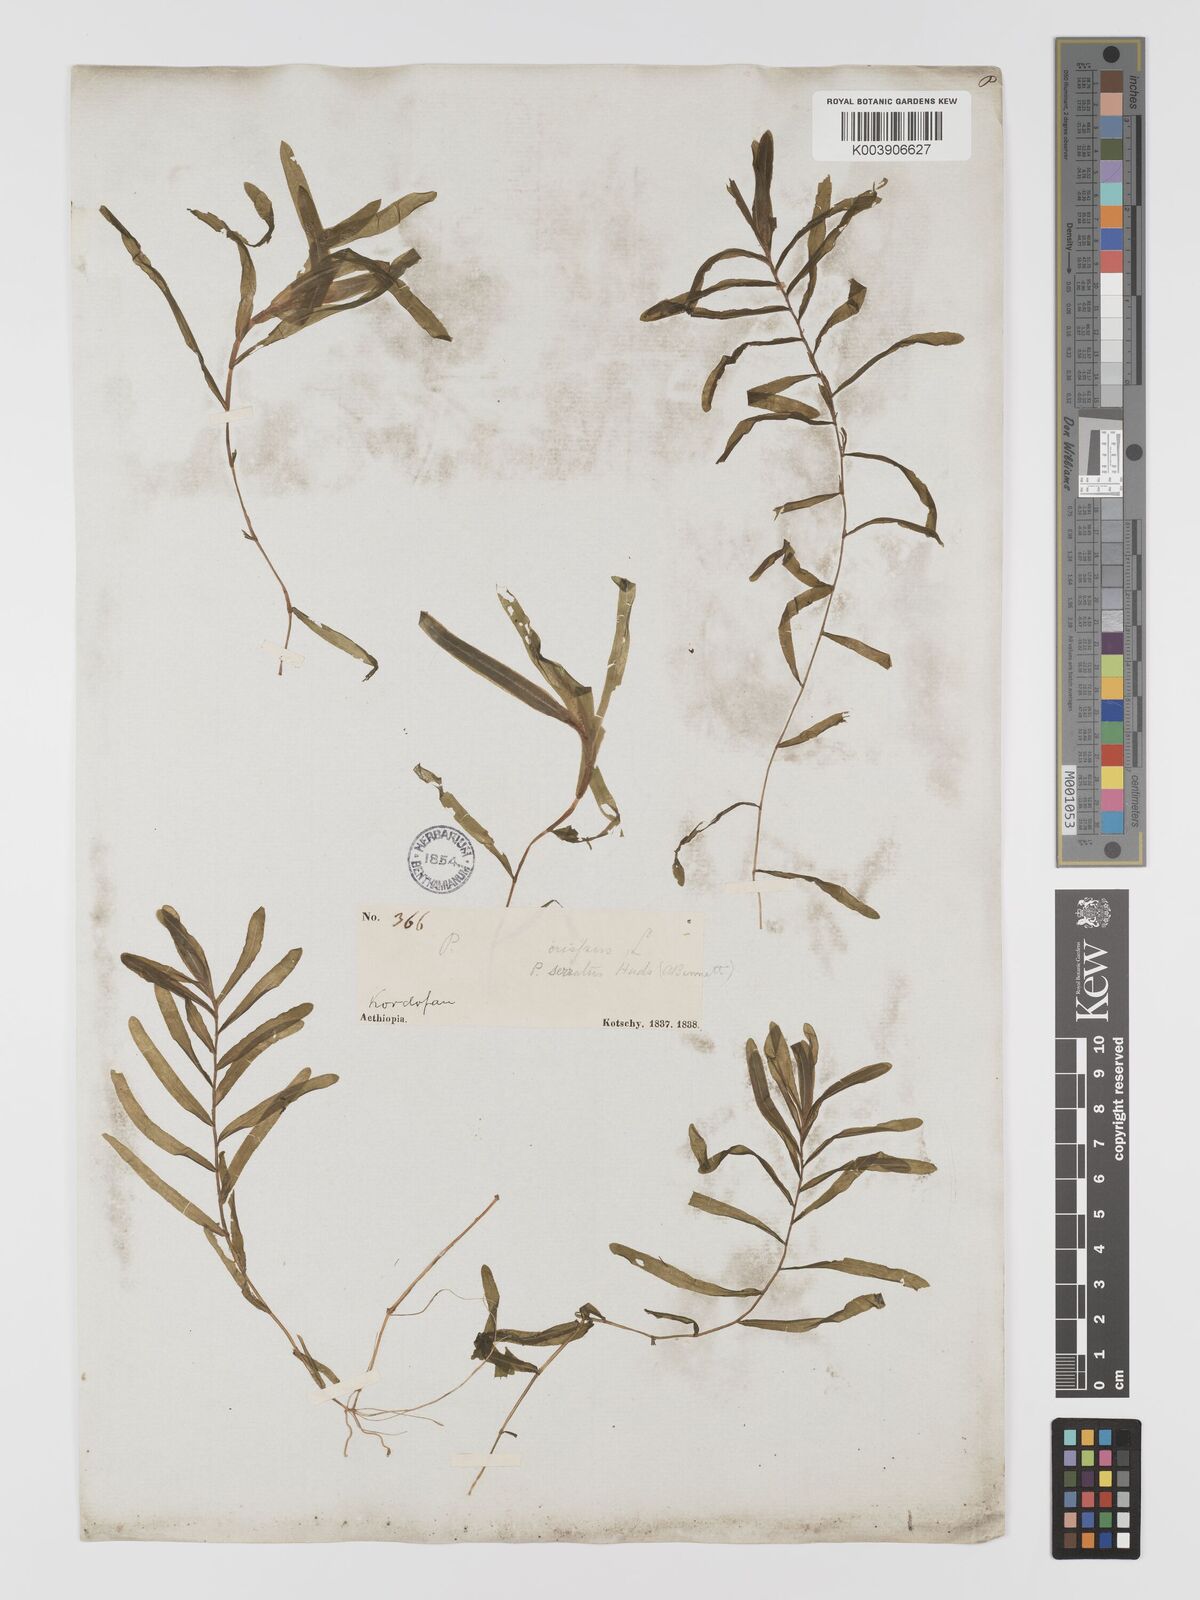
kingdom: Plantae
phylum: Tracheophyta
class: Liliopsida
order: Alismatales
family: Potamogetonaceae
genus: Potamogeton
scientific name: Potamogeton crispus
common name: Curled pondweed
